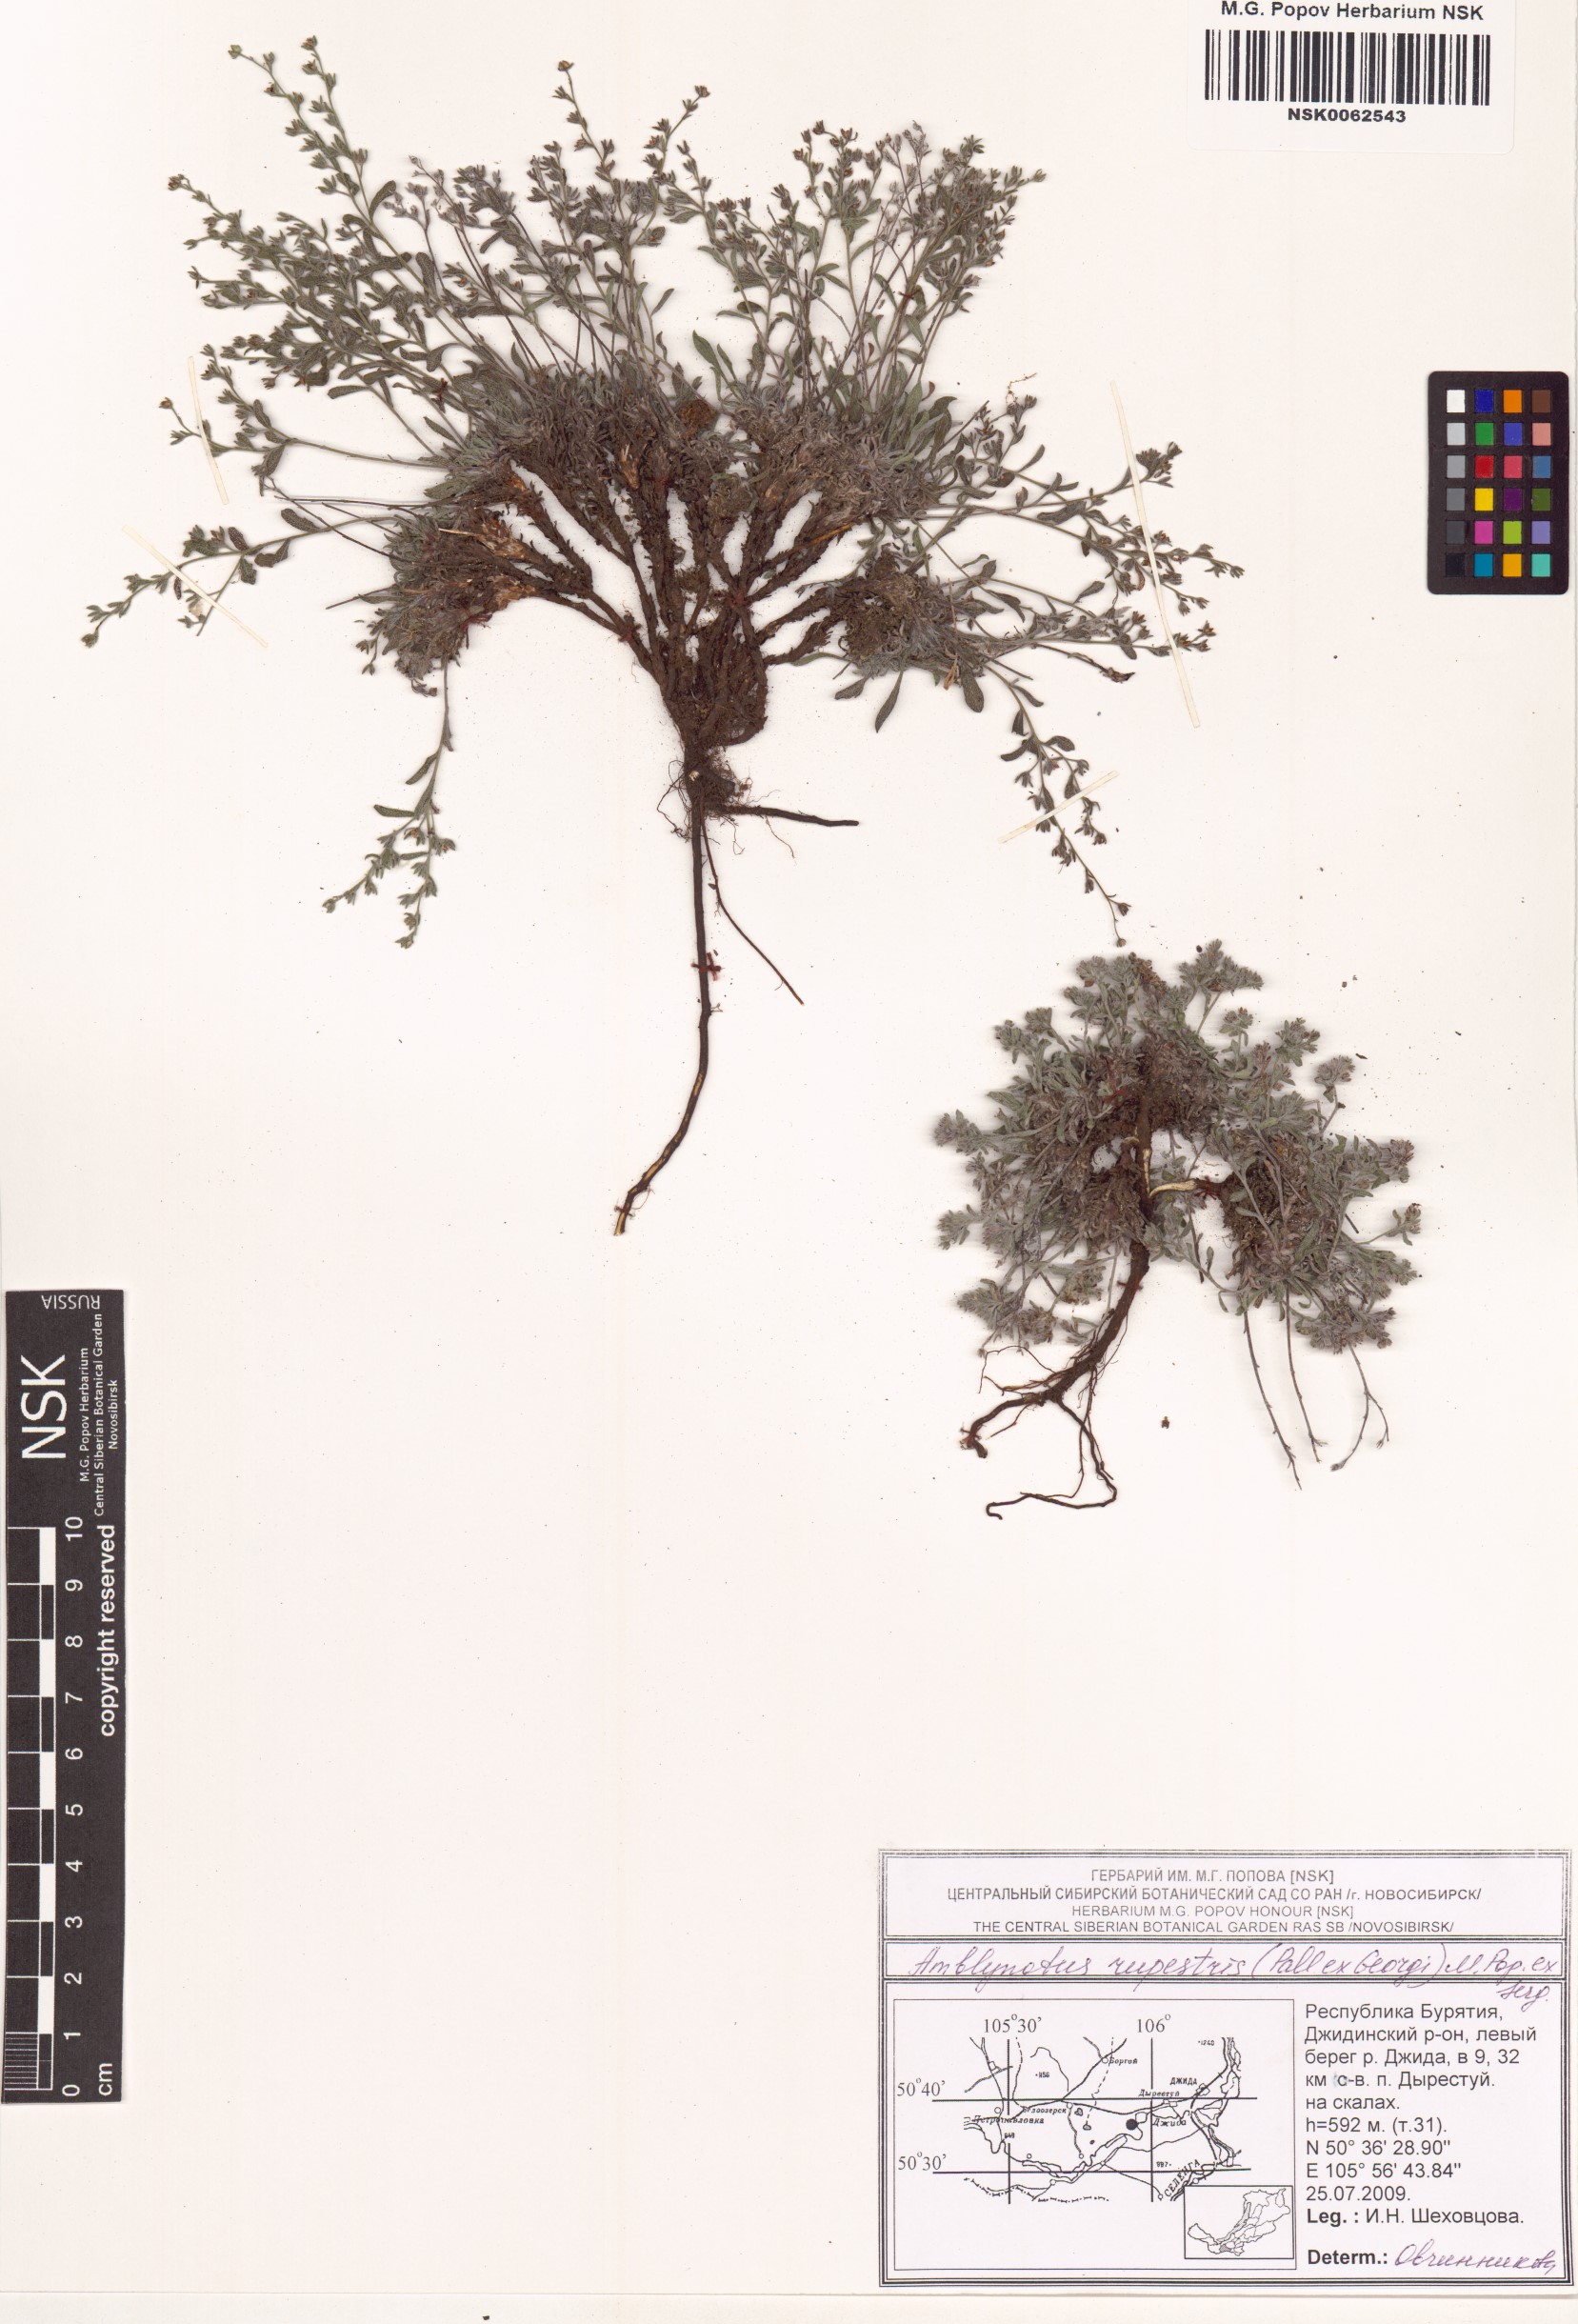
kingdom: Plantae
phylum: Tracheophyta
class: Magnoliopsida
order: Boraginales
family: Boraginaceae
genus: Eritrichium
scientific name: Eritrichium rupestre
